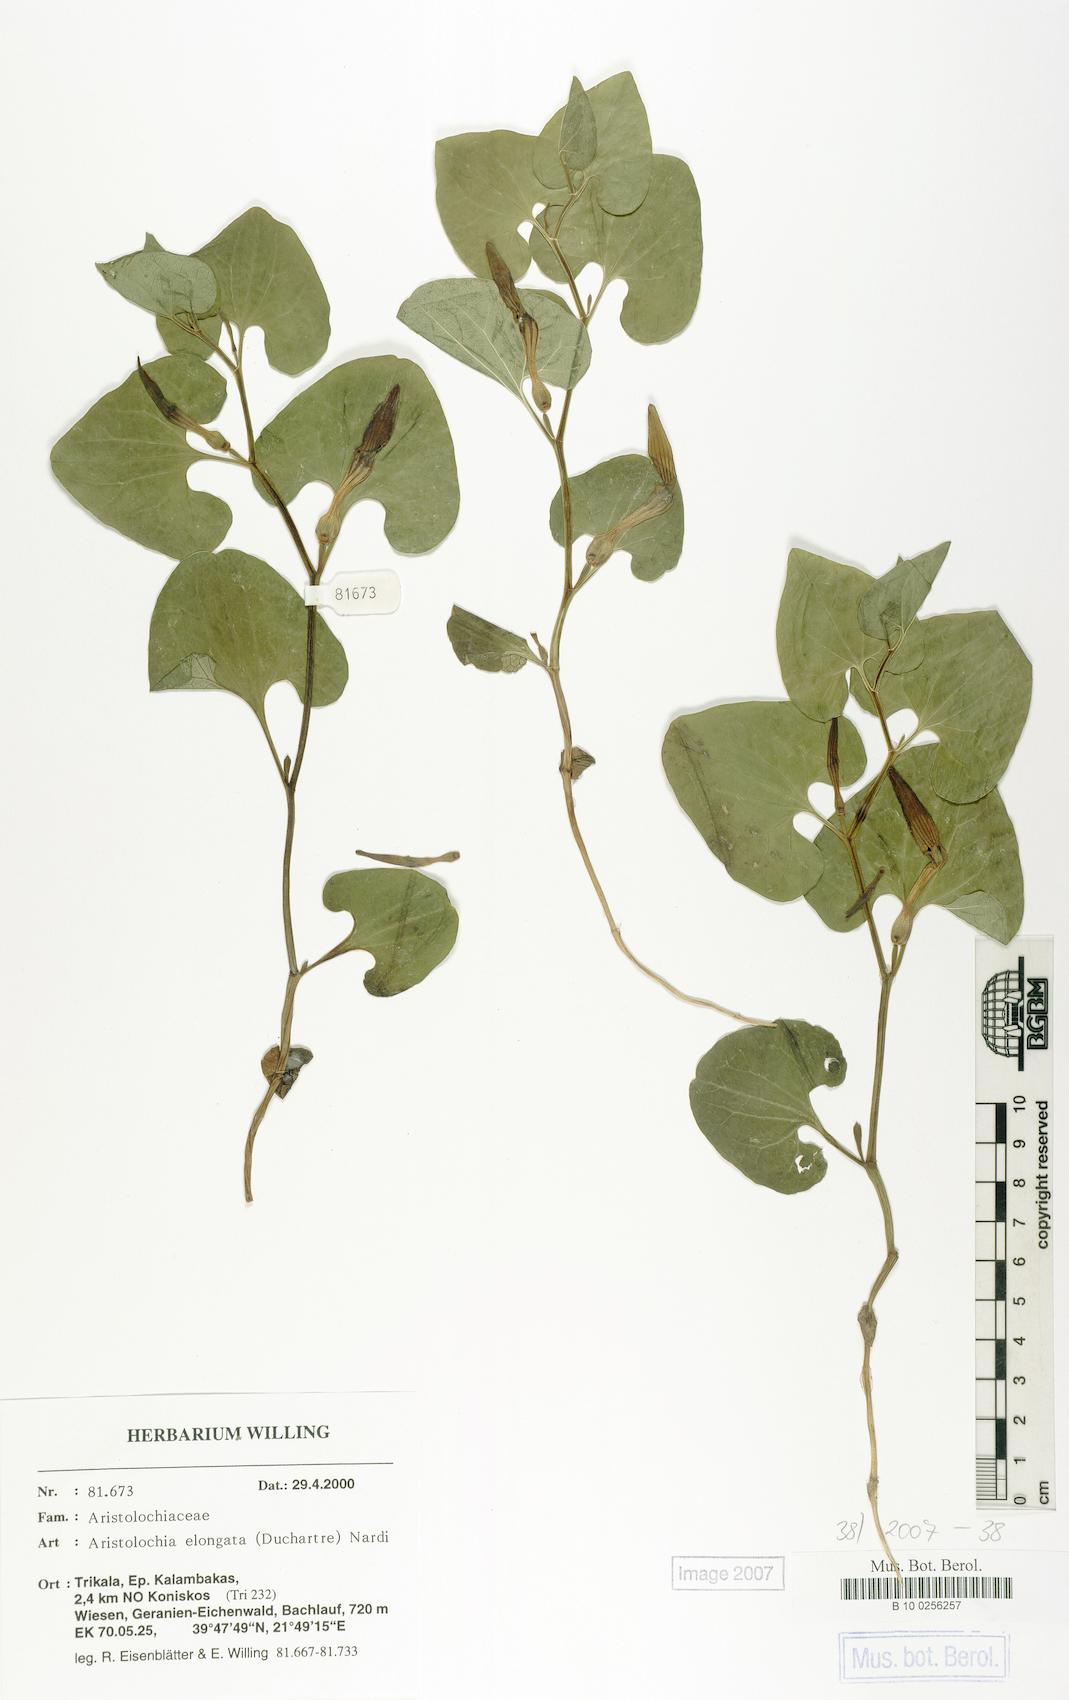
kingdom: Plantae
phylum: Tracheophyta
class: Magnoliopsida
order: Piperales
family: Aristolochiaceae
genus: Aristolochia
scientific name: Aristolochia nardiana
